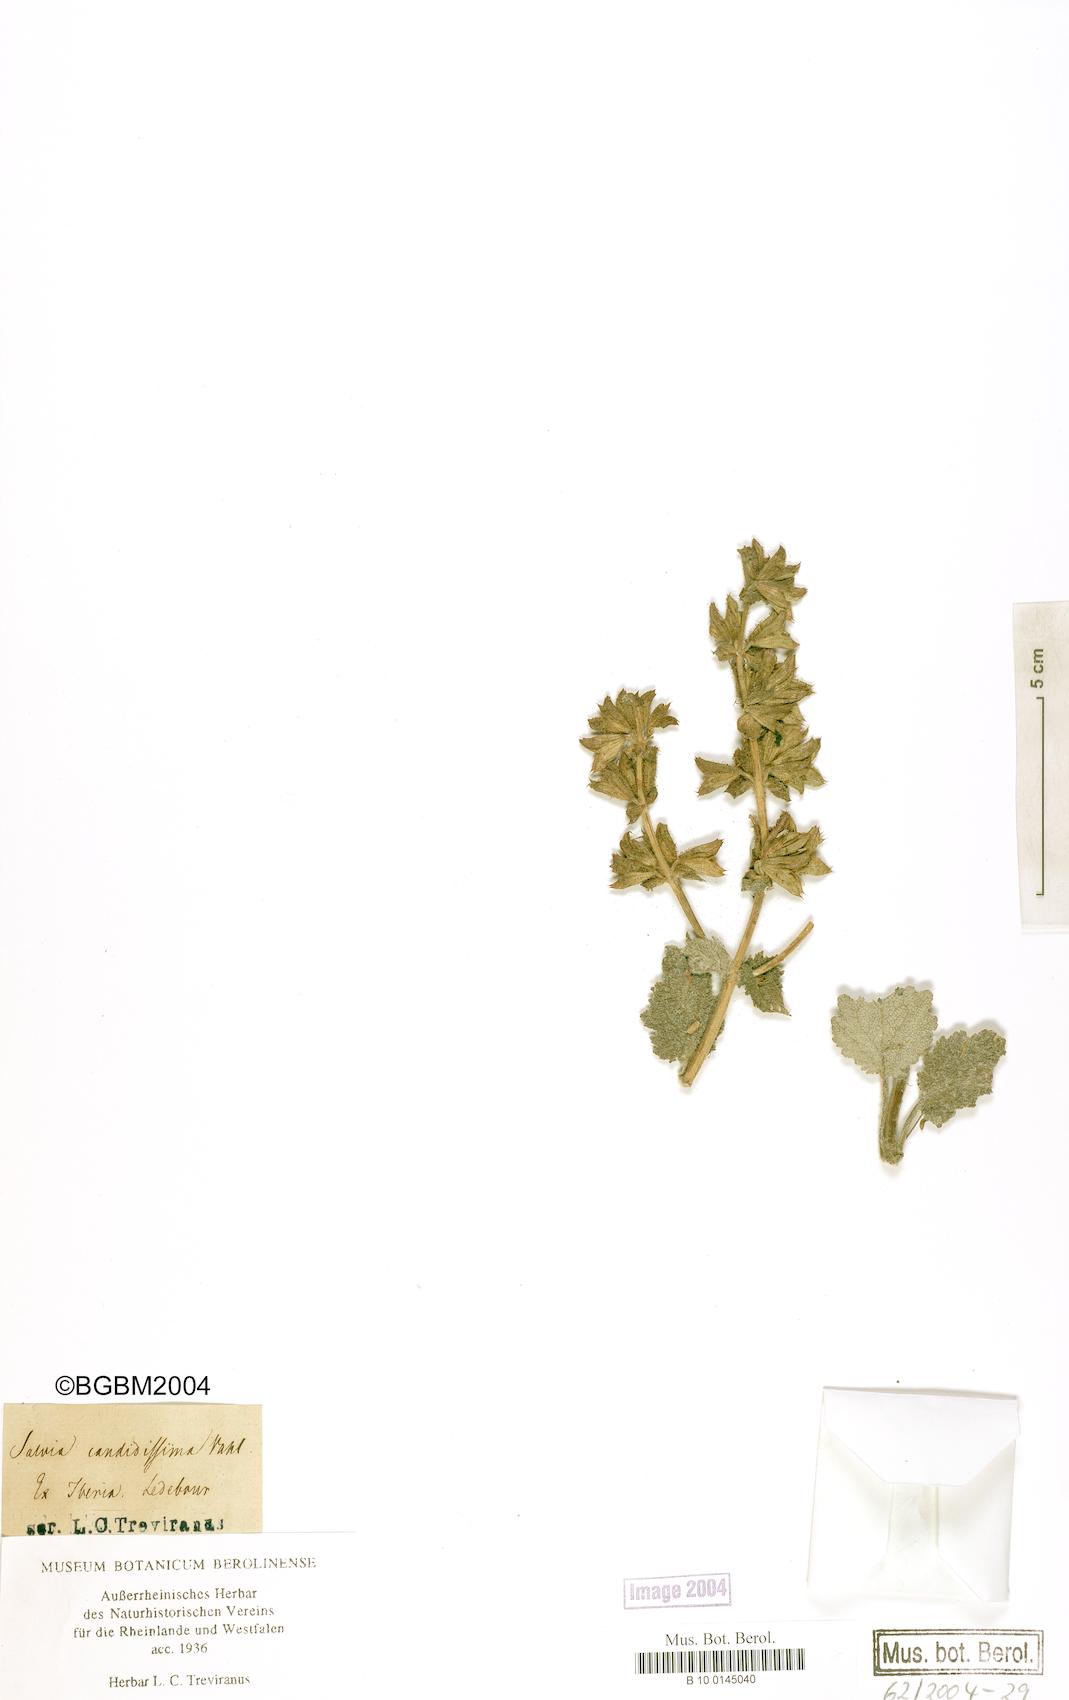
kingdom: Plantae
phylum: Tracheophyta
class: Magnoliopsida
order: Lamiales
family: Lamiaceae
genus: Salvia
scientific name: Salvia candidissima
